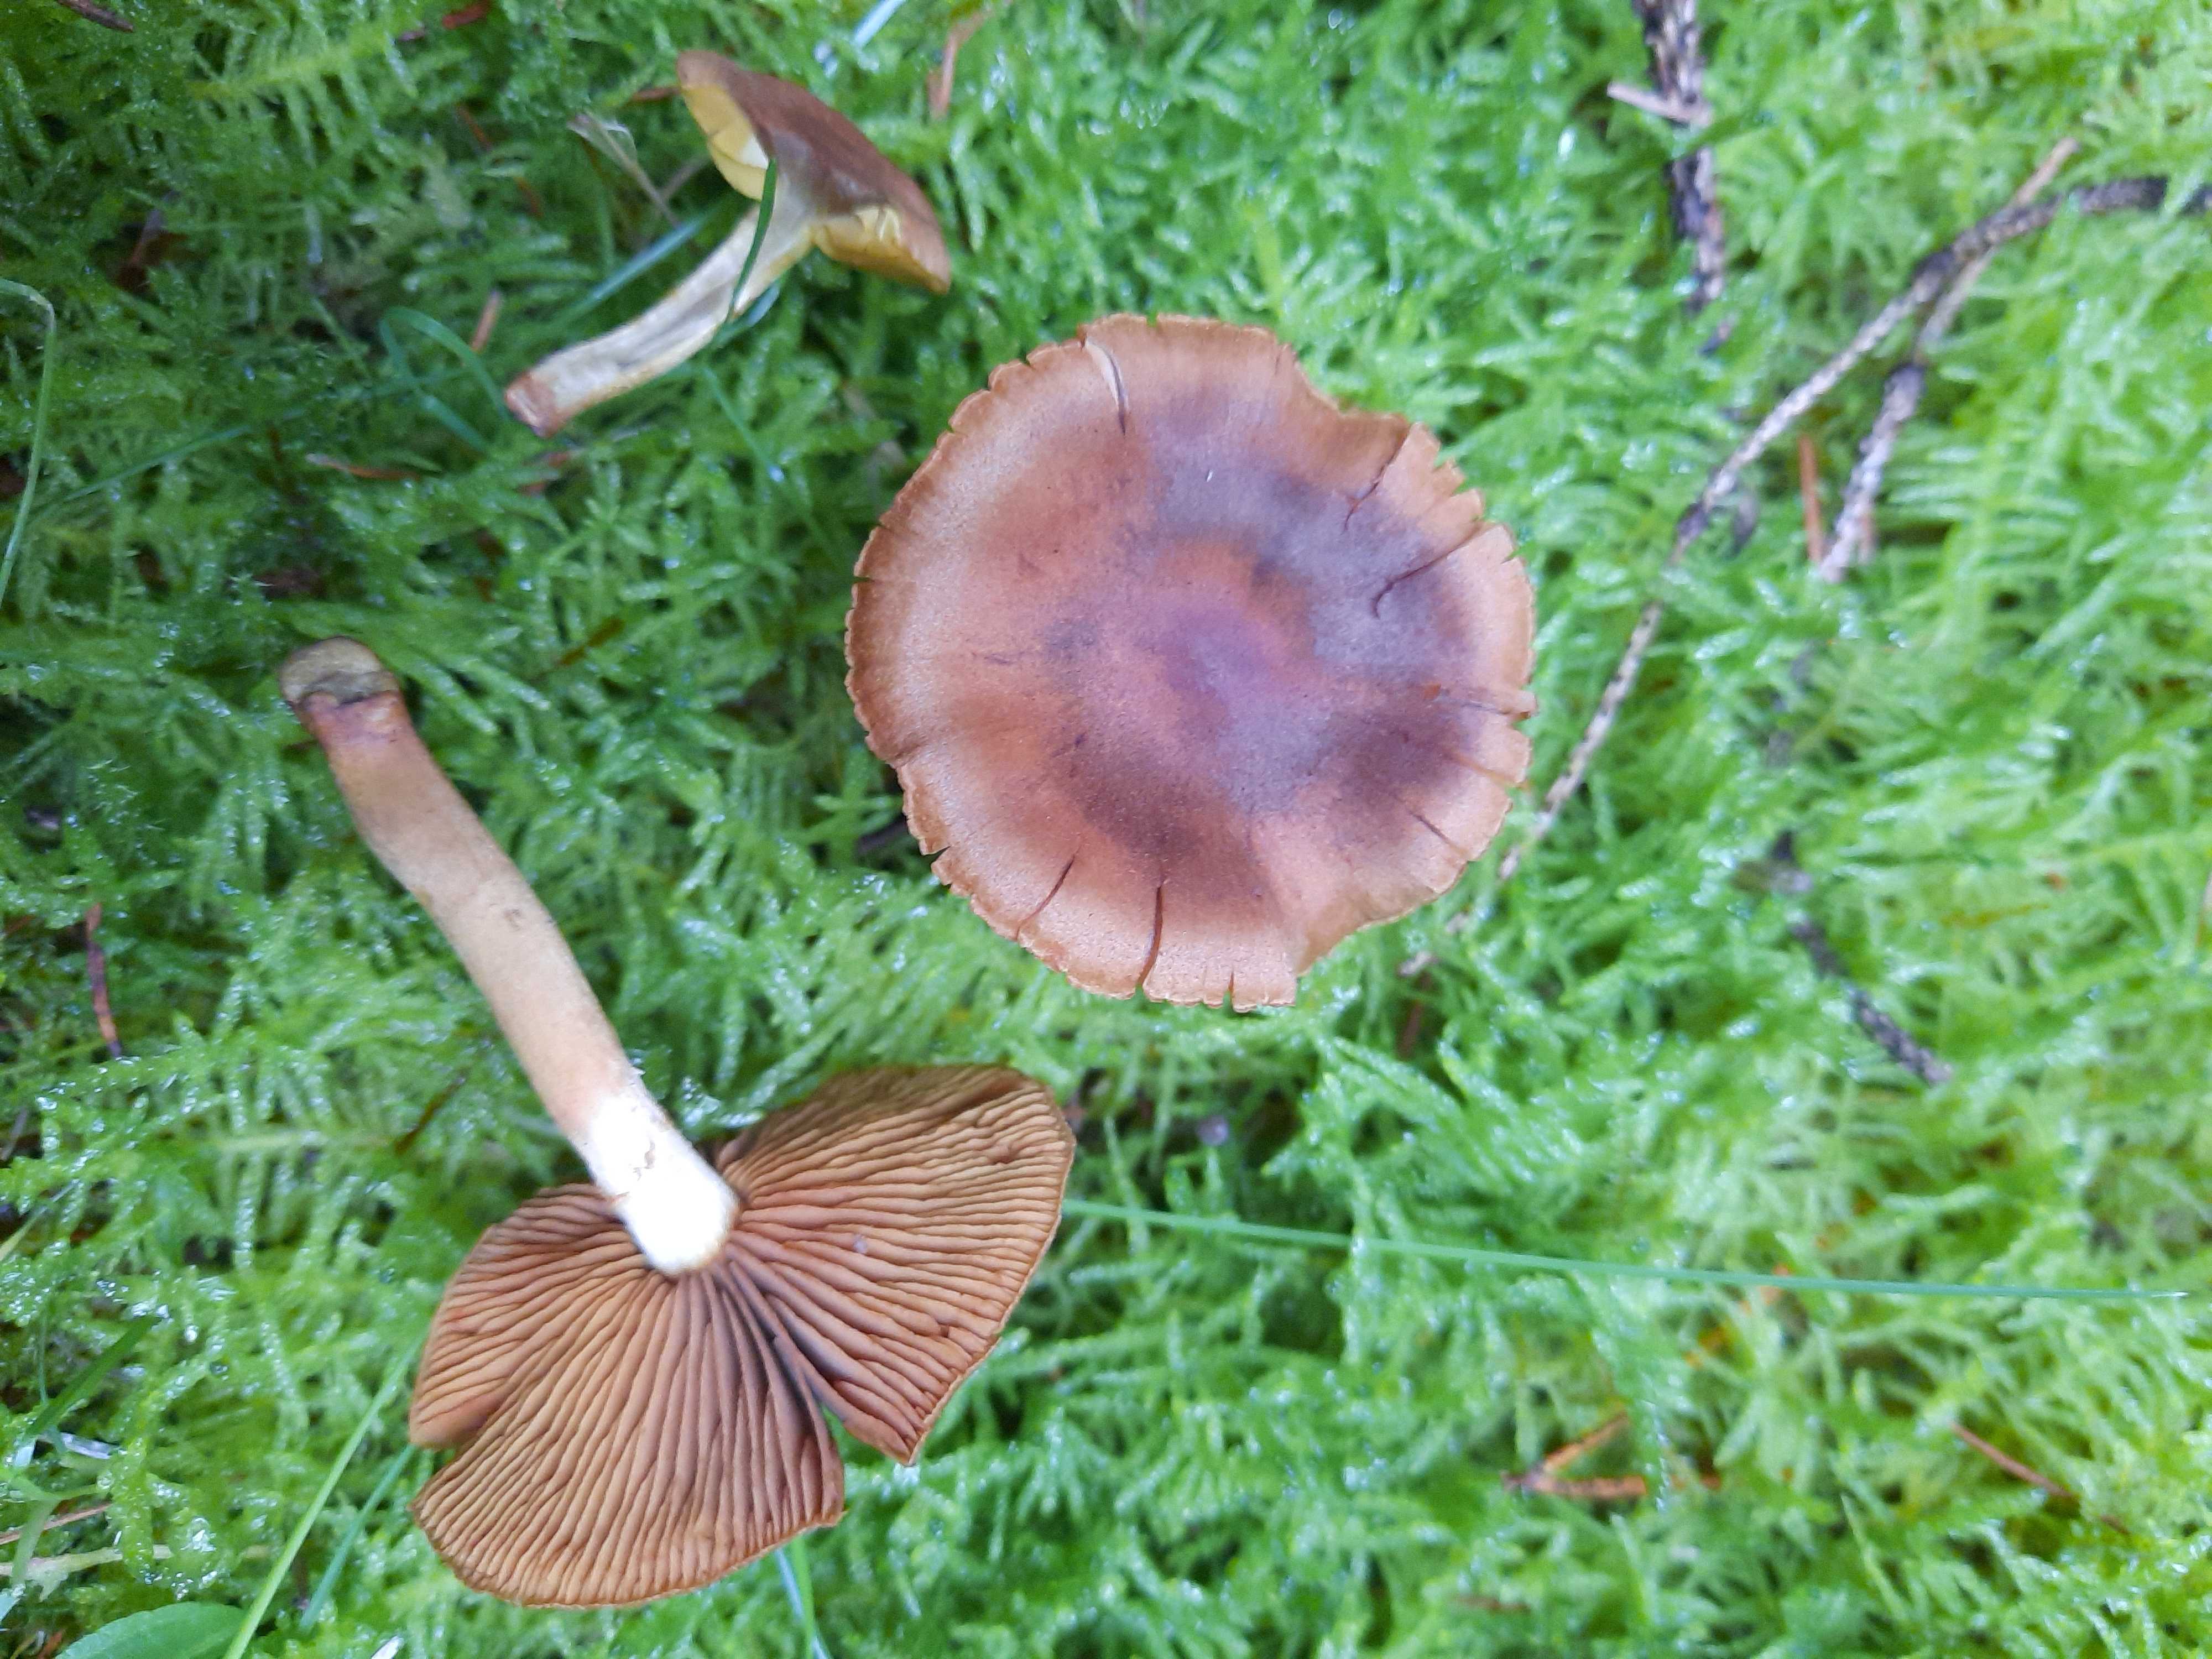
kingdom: Fungi
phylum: Basidiomycota
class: Agaricomycetes
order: Agaricales
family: Cortinariaceae
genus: Cortinarius
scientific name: Cortinarius malicorius
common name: grønkødet slørhat
